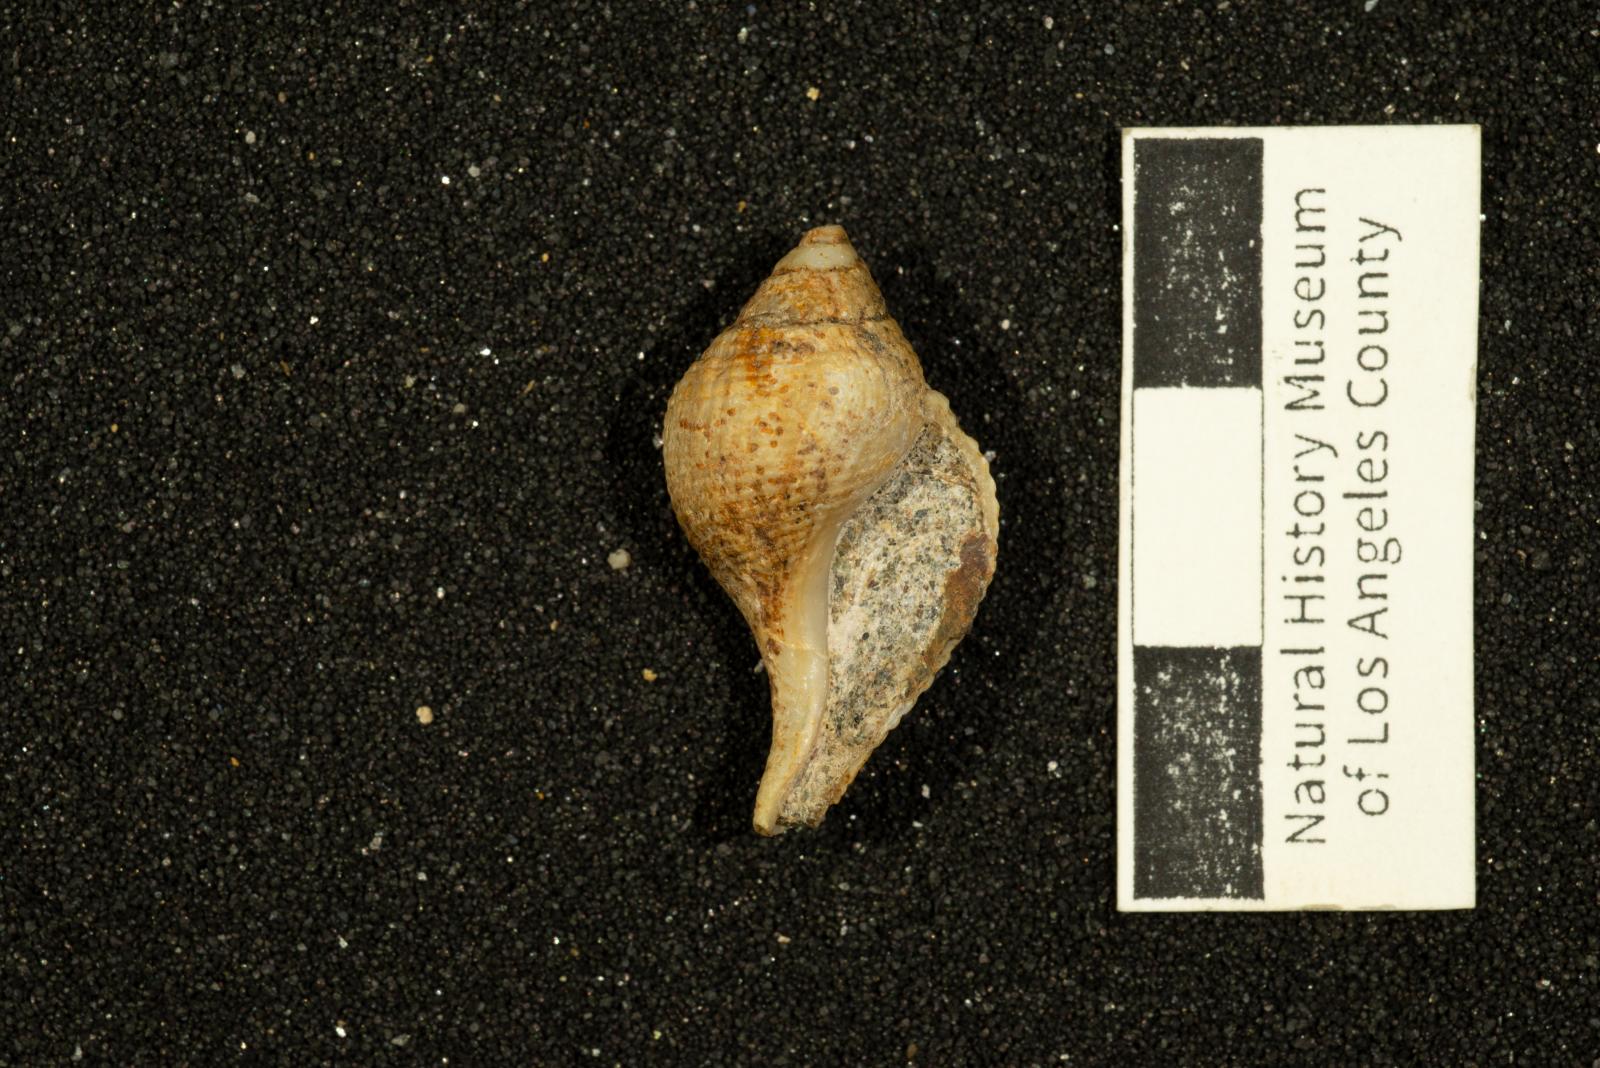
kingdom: Animalia
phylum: Mollusca
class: Gastropoda
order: Neogastropoda
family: Fasciolariidae
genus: Plectocion
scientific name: Plectocion Neptunea curvirostris
